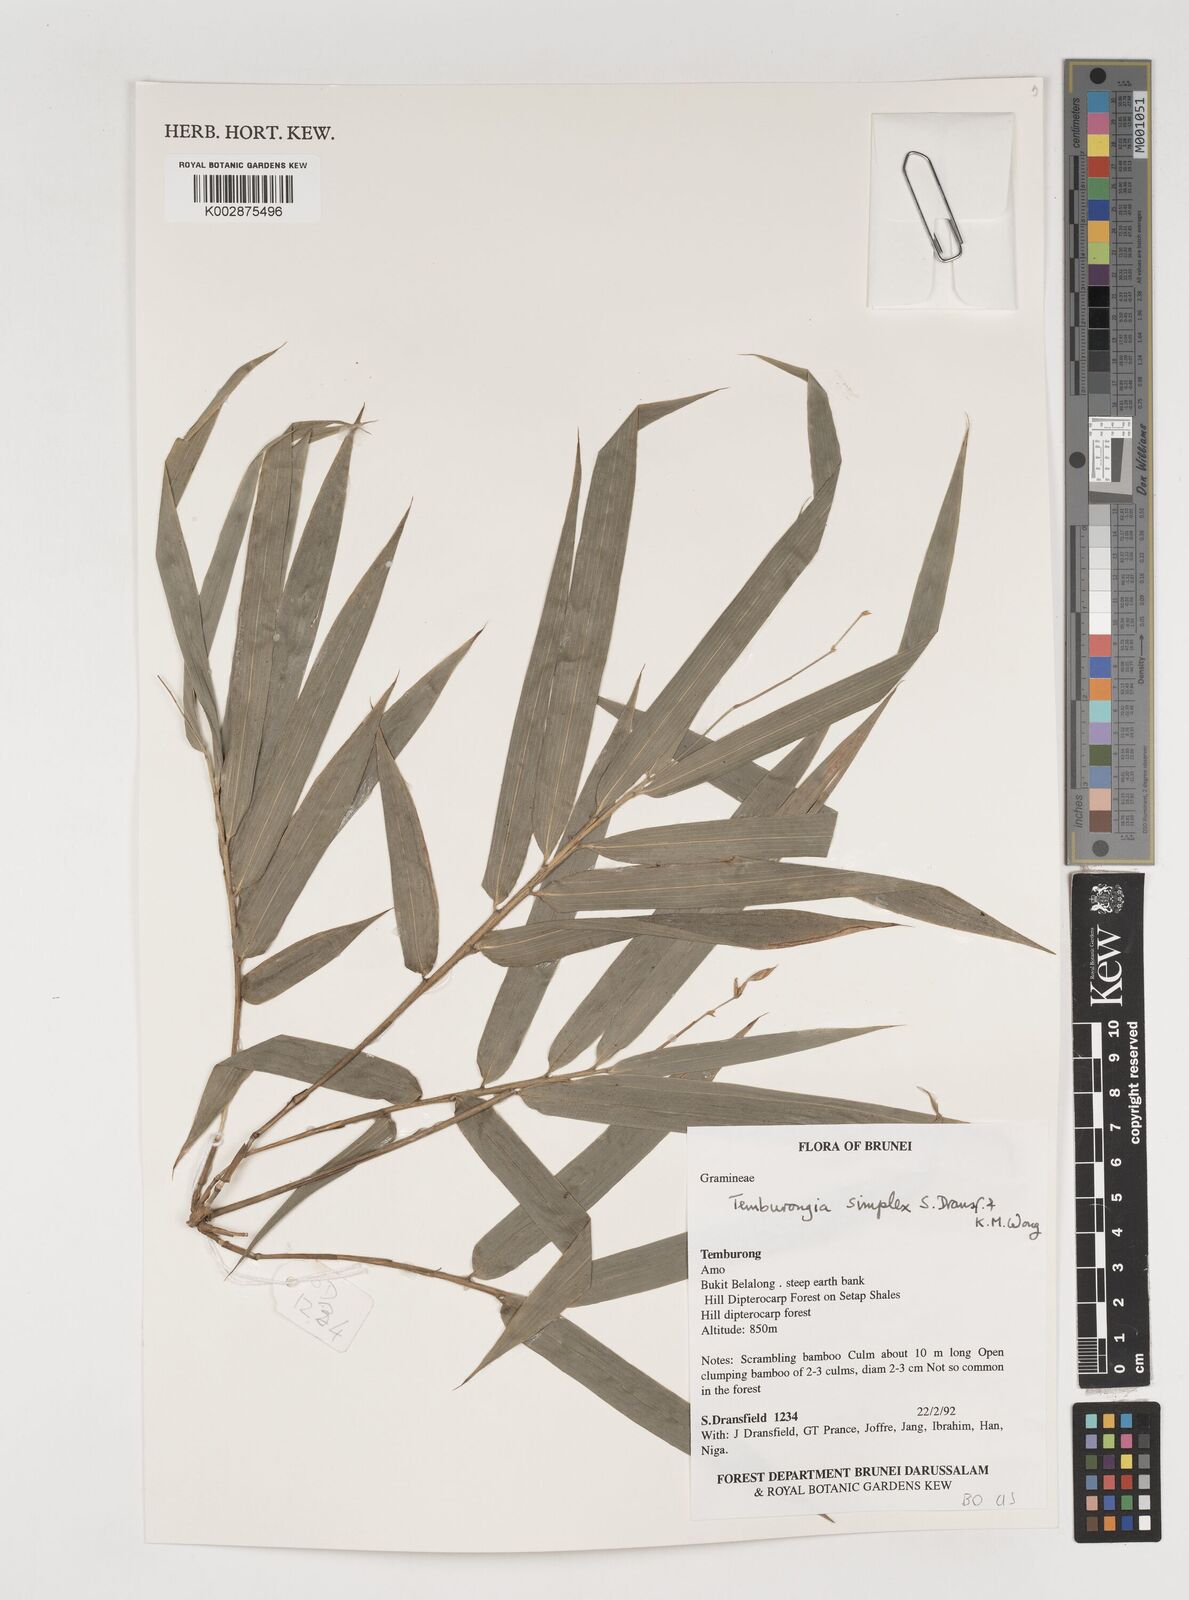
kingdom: Plantae
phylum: Tracheophyta
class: Liliopsida
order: Poales
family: Poaceae
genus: Temburongia
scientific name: Temburongia simplex
